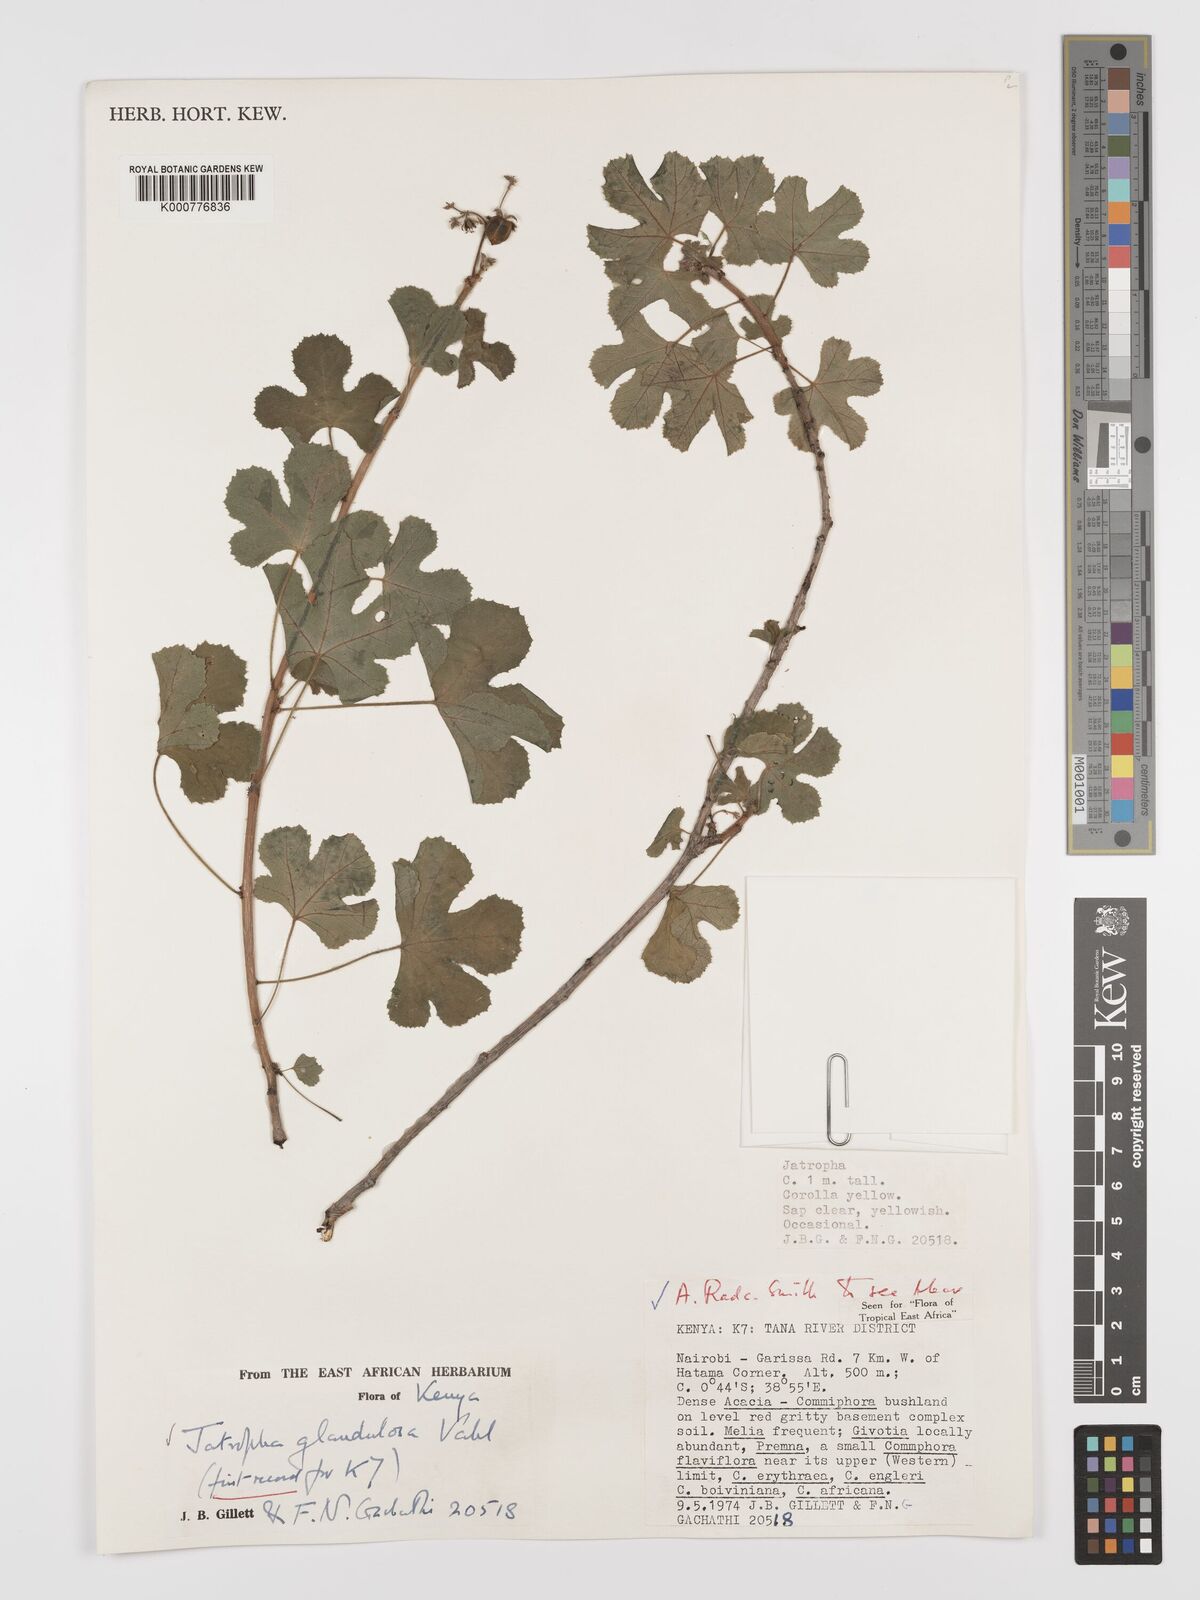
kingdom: Plantae
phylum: Tracheophyta
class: Magnoliopsida
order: Malpighiales
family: Euphorbiaceae
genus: Jatropha
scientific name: Jatropha pelargoniifolia
